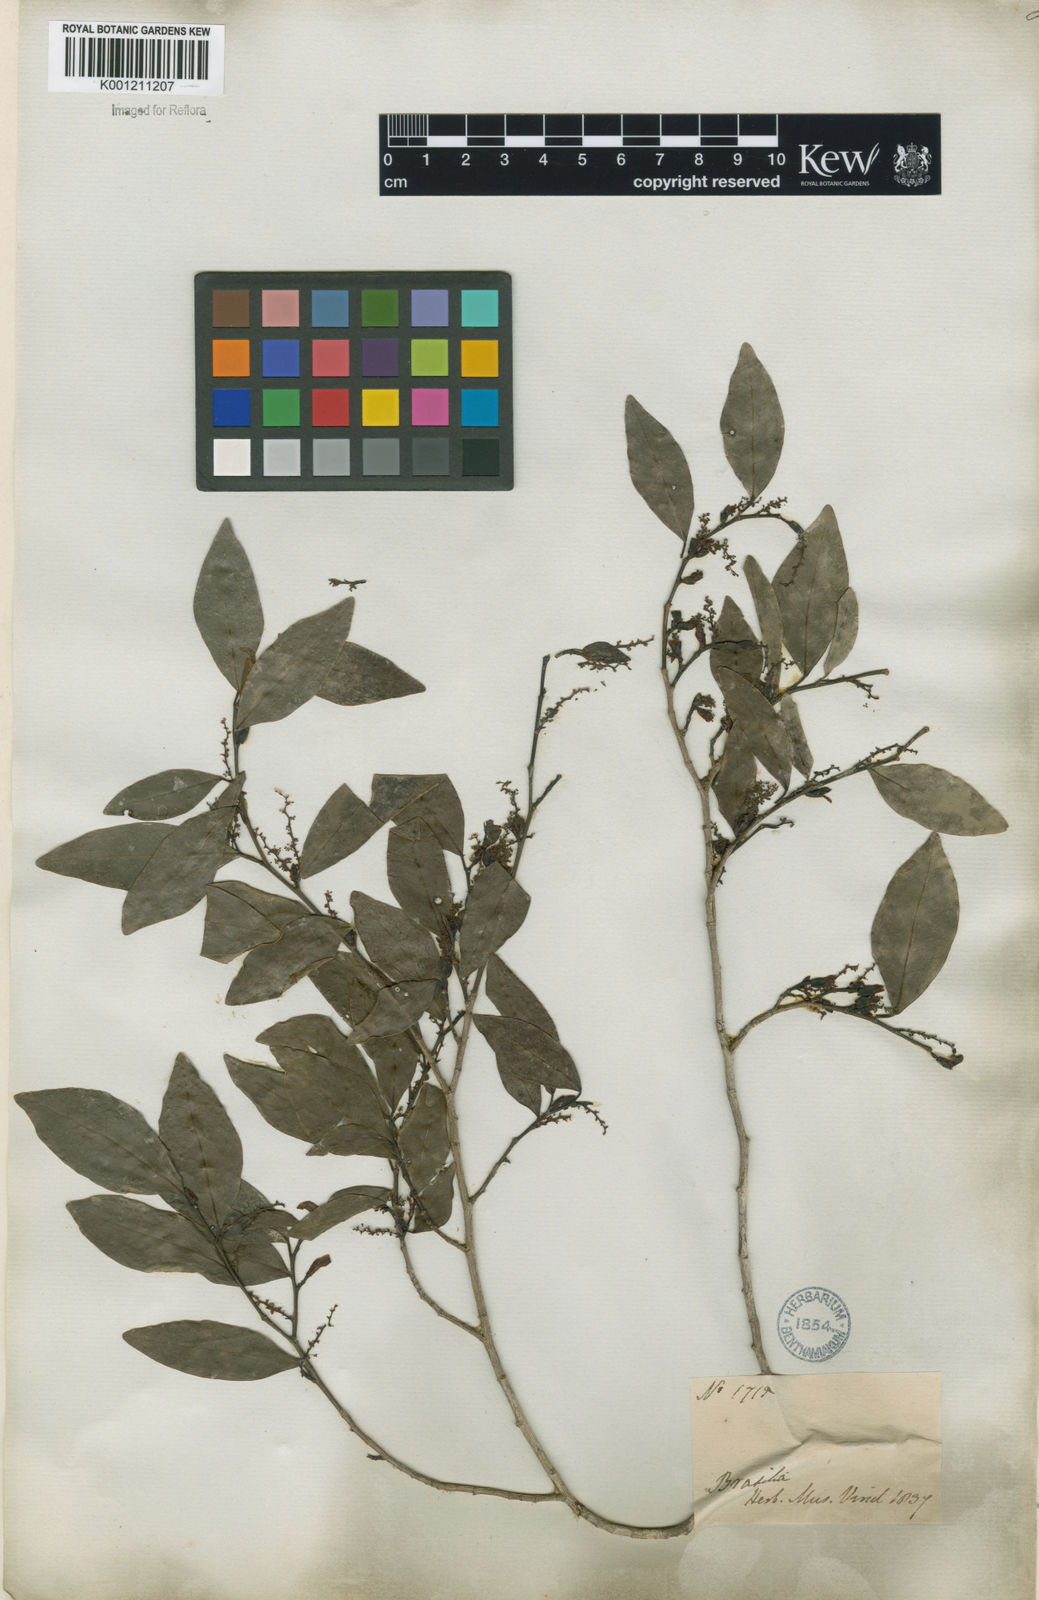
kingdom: Plantae
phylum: Tracheophyta
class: Magnoliopsida
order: Malpighiales
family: Euphorbiaceae
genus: Actinostemon
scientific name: Actinostemon
